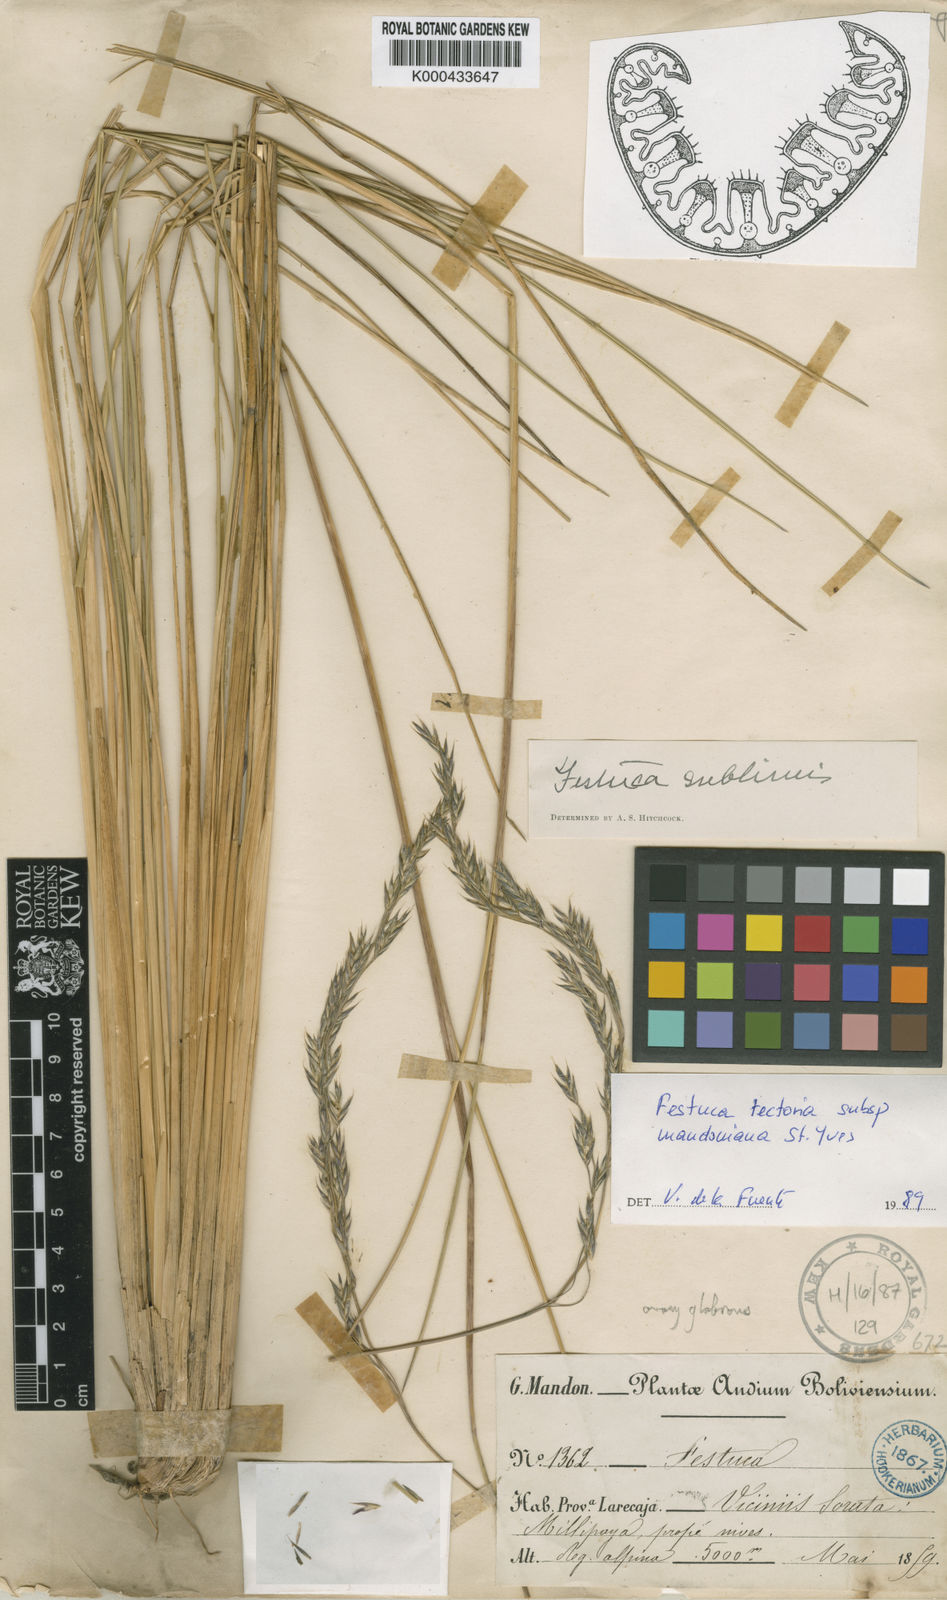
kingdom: Plantae
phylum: Tracheophyta
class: Liliopsida
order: Poales
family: Poaceae
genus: Festuca
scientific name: Festuca rigescens
